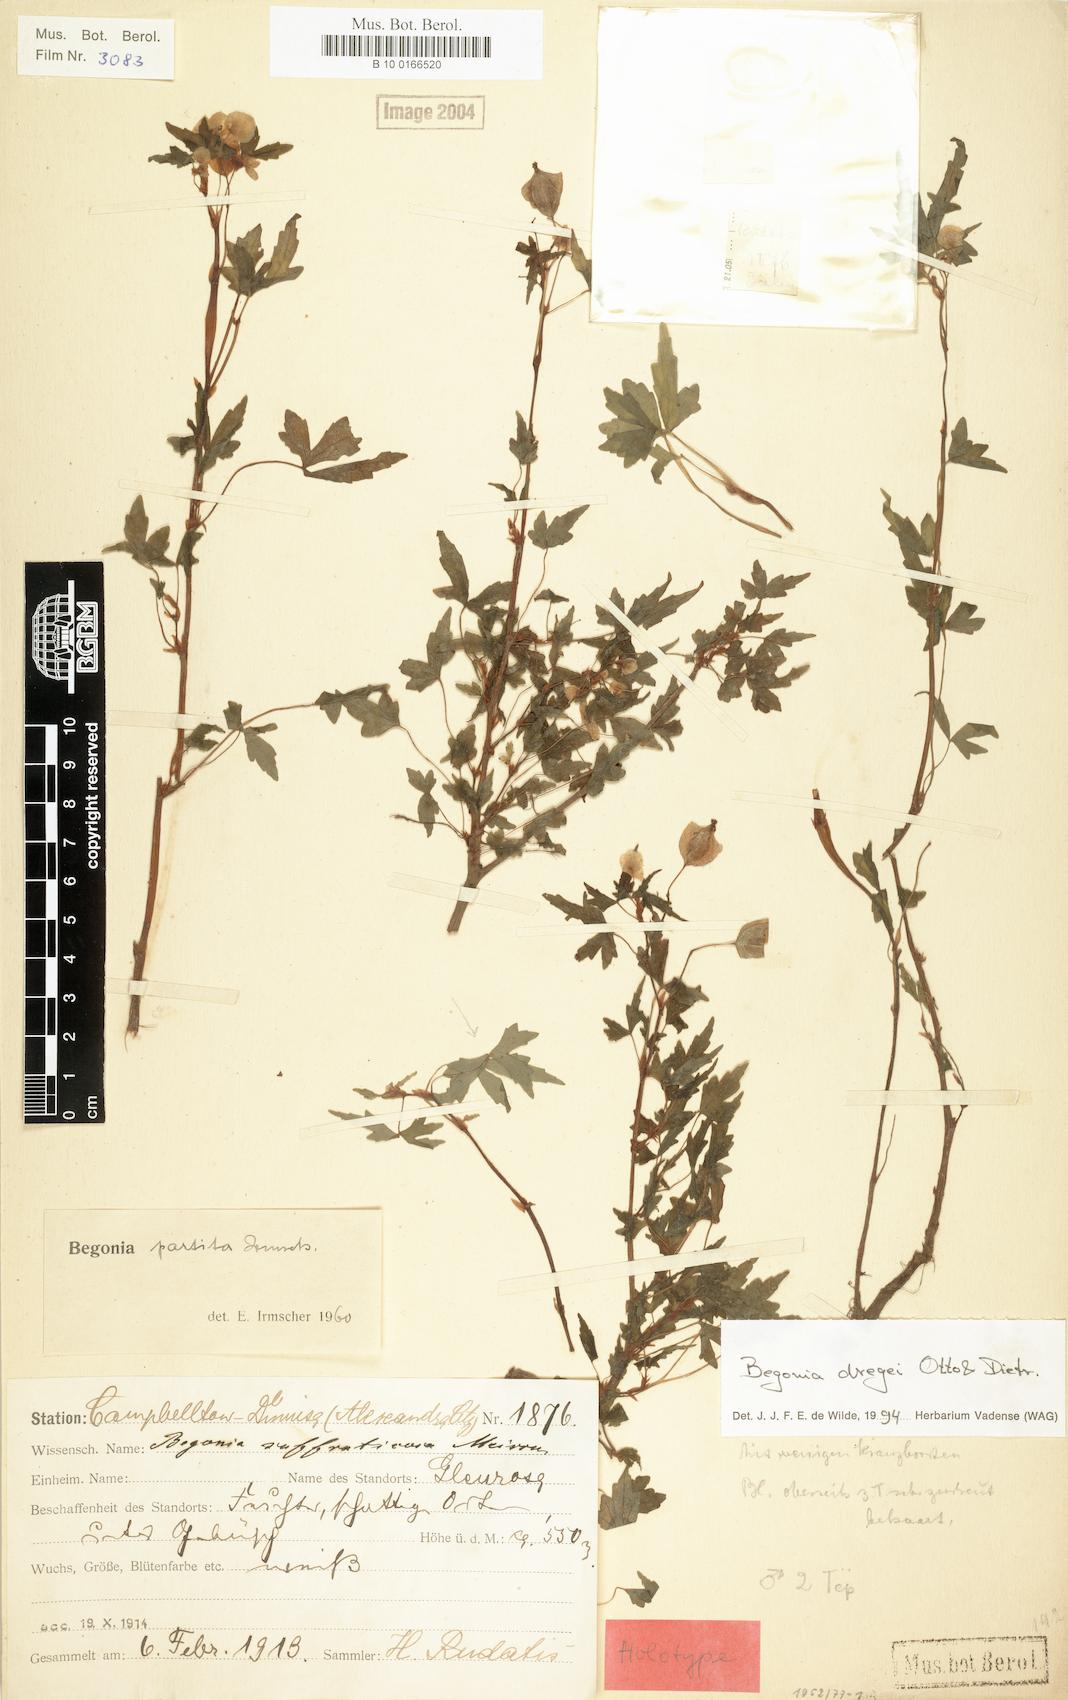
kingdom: Plantae
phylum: Tracheophyta
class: Magnoliopsida
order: Cucurbitales
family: Begoniaceae
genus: Begonia
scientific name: Begonia dregei
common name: Grape-leaf begonia
